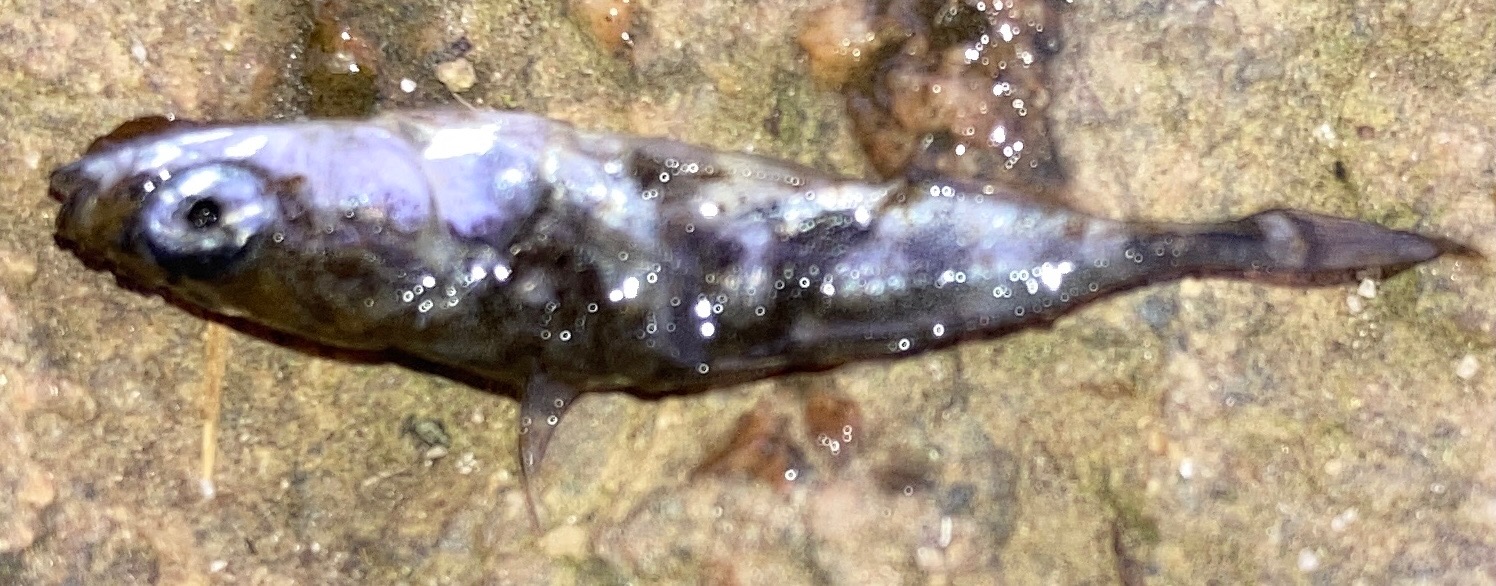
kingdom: Animalia
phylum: Chordata
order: Gasterosteiformes
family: Gasterosteidae
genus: Gasterosteus
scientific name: Gasterosteus aculeatus
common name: Trepigget hundestejle
